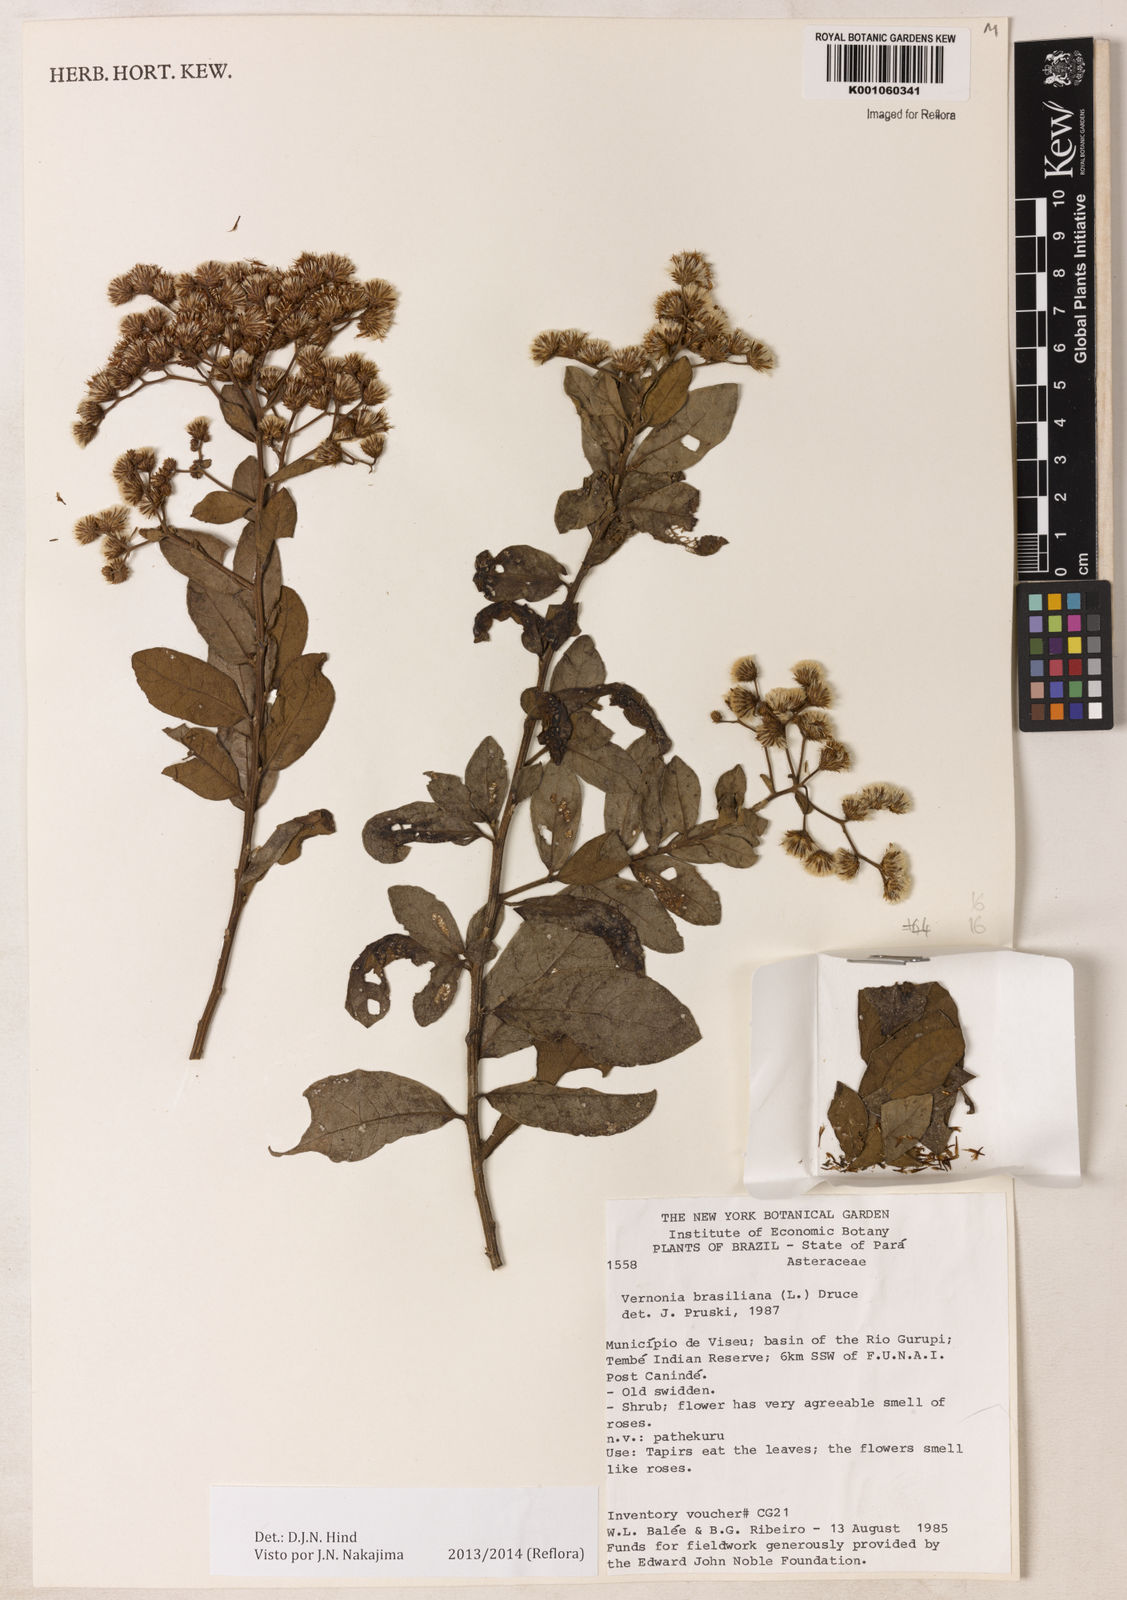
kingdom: Plantae
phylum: Tracheophyta
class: Magnoliopsida
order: Asterales
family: Asteraceae
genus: Vernonanthura
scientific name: Vernonanthura brasiliana
